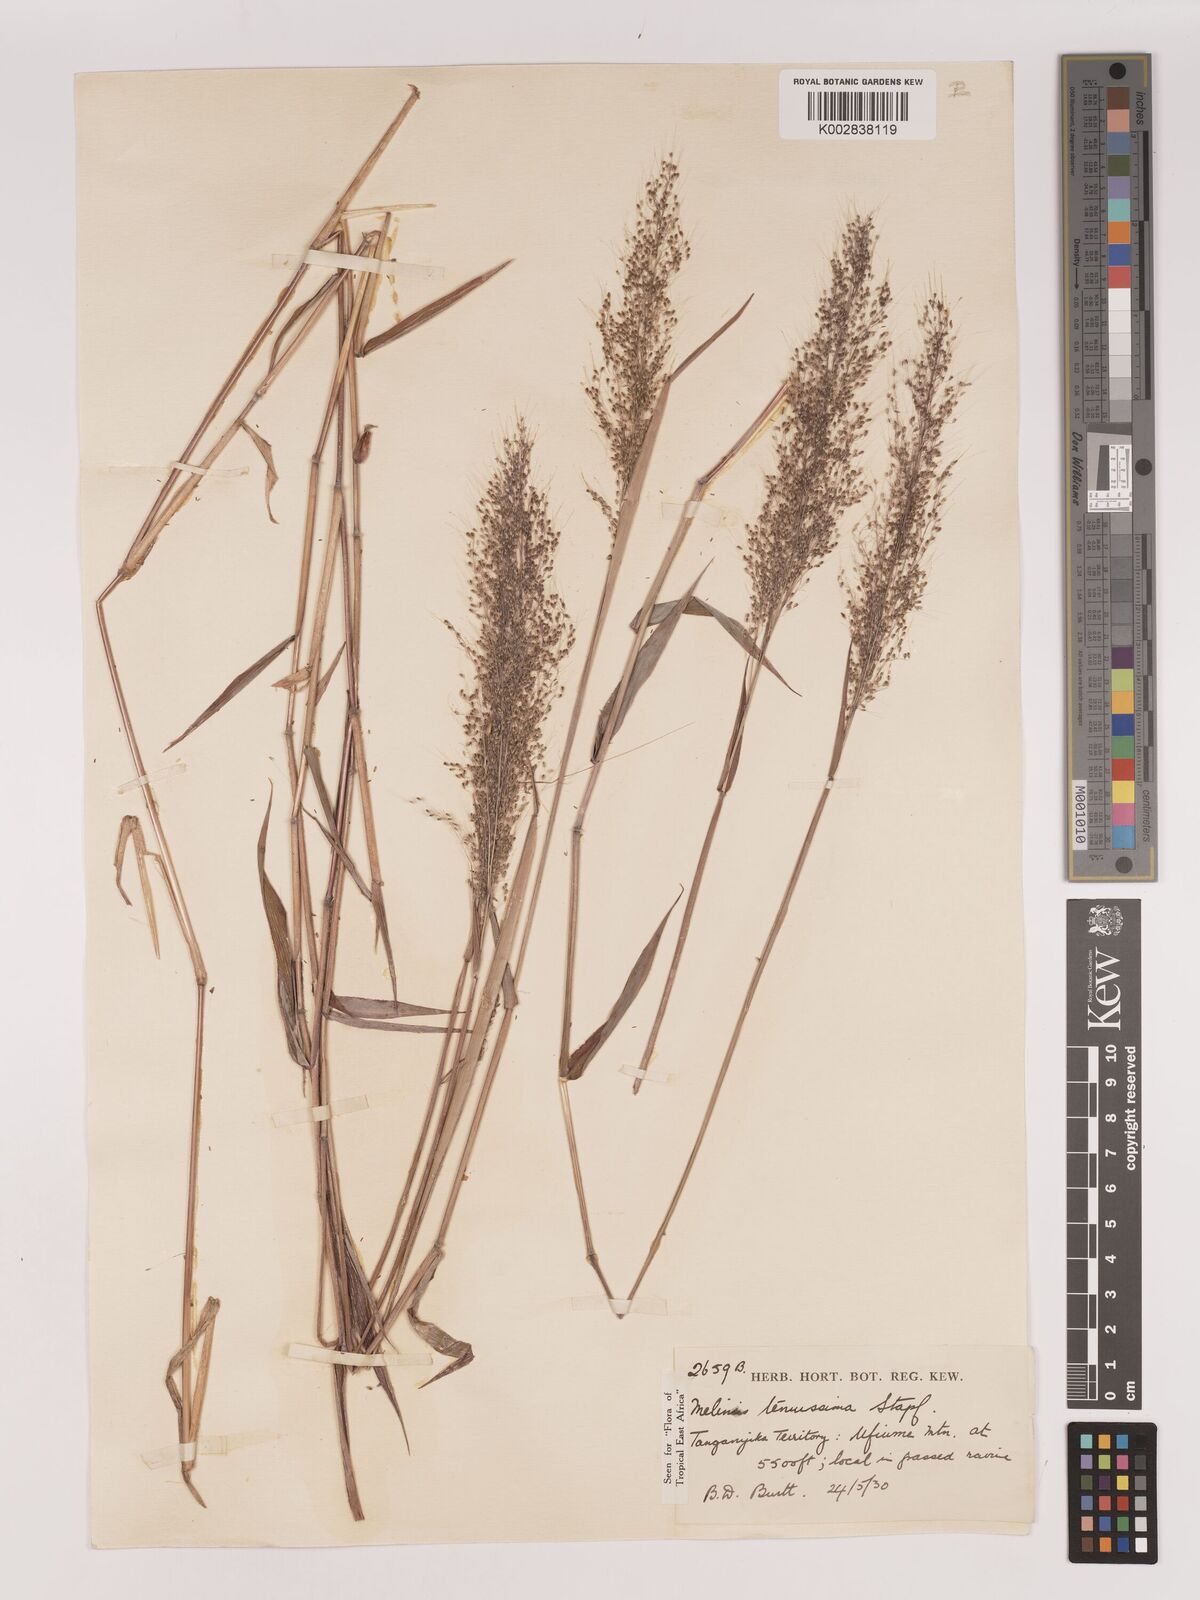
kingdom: Plantae
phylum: Tracheophyta
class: Liliopsida
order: Poales
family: Poaceae
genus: Melinis
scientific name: Melinis tenuissima
